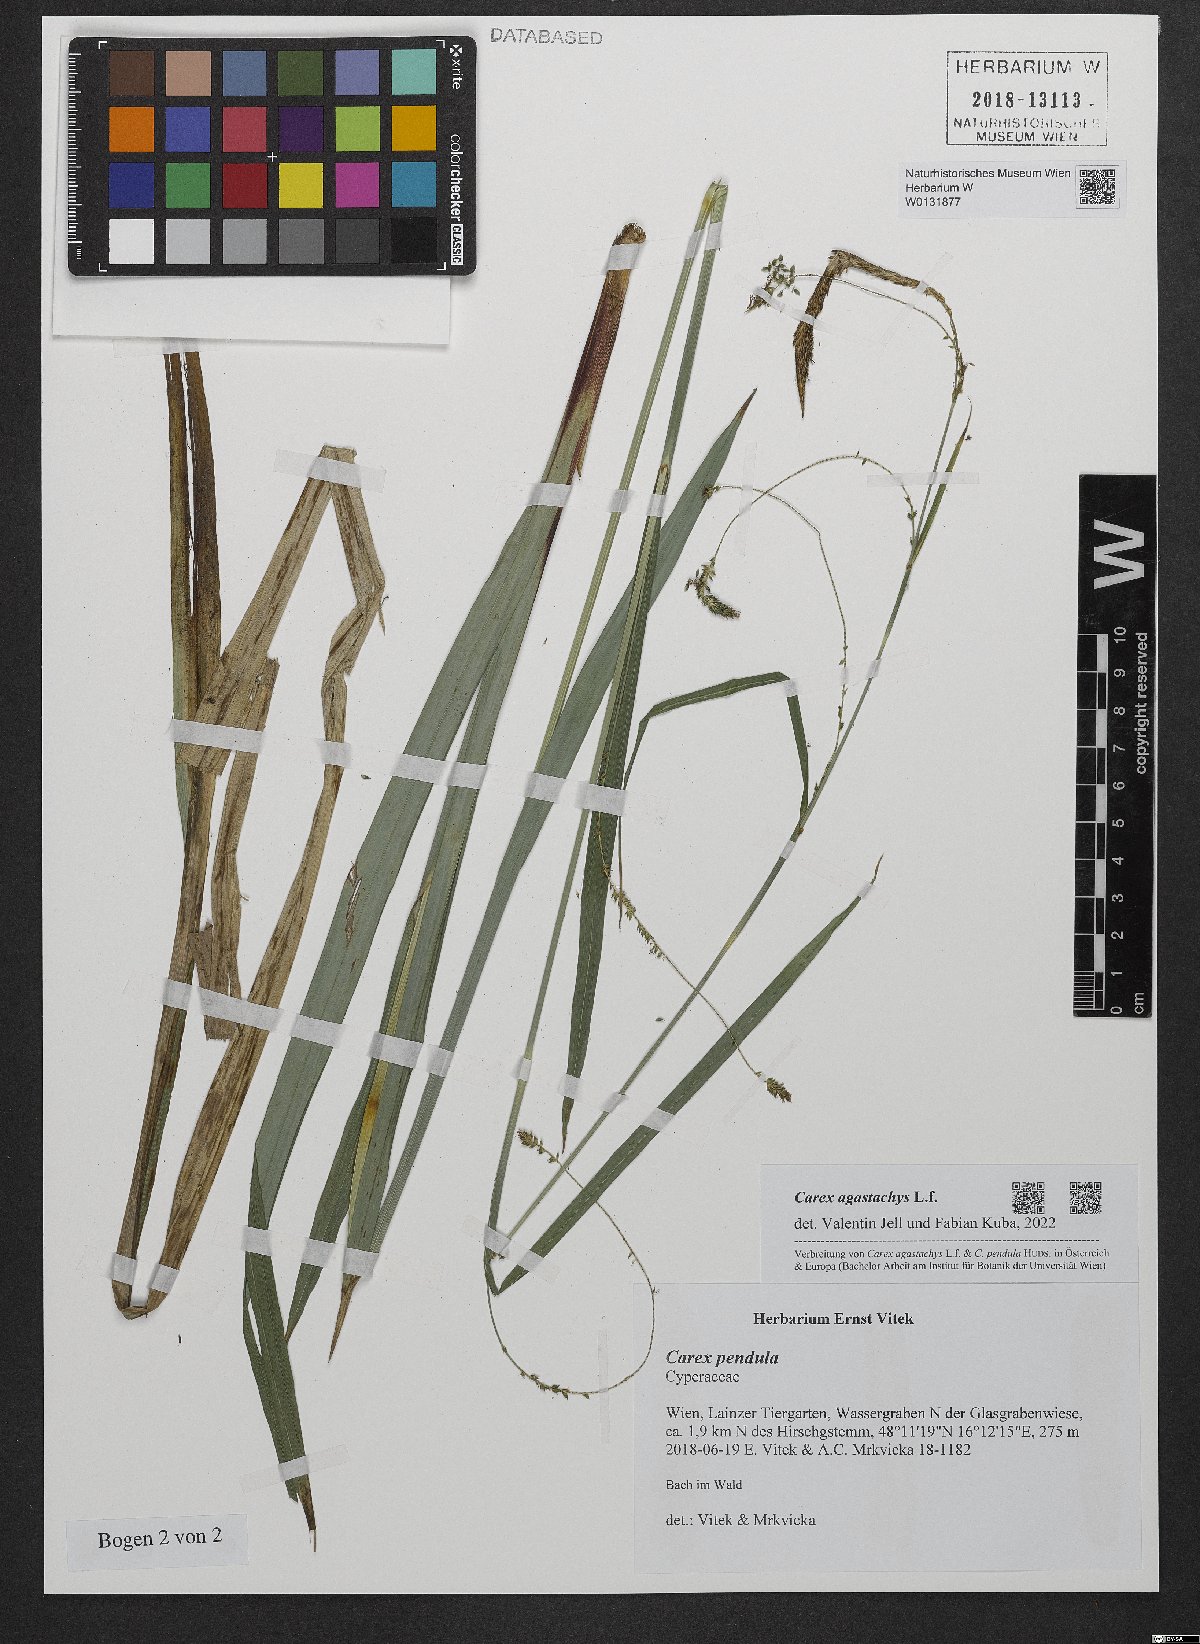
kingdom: Plantae
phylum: Tracheophyta
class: Liliopsida
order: Poales
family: Cyperaceae
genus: Carex
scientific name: Carex agastachys
